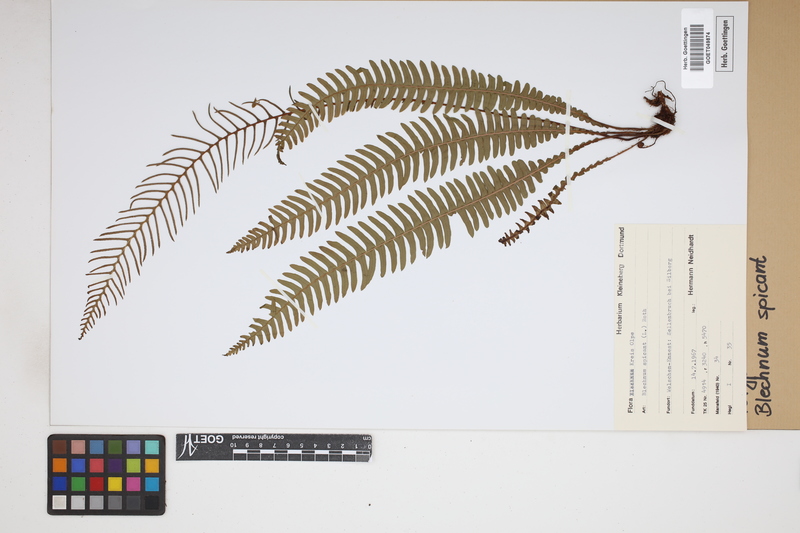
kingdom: Plantae
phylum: Tracheophyta
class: Polypodiopsida
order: Polypodiales
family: Blechnaceae
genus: Struthiopteris
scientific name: Struthiopteris spicant
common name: Deer fern
